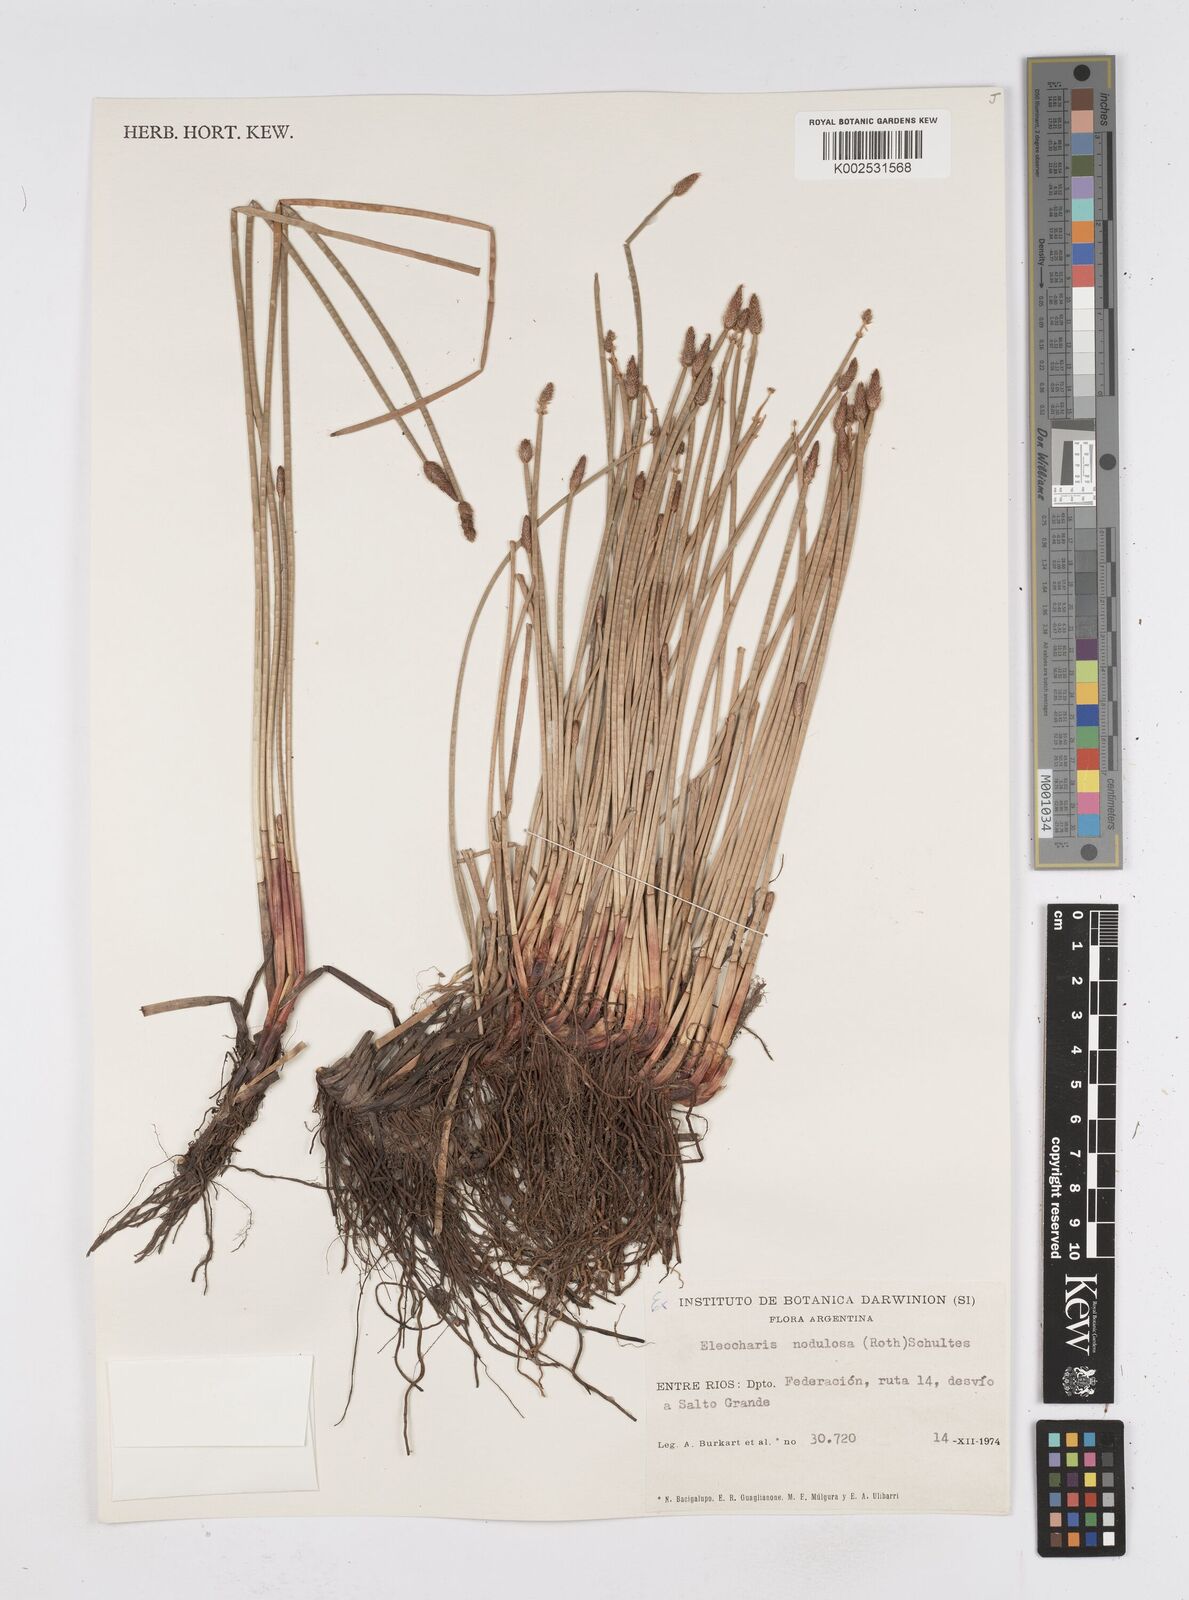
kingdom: Plantae
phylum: Tracheophyta
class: Liliopsida
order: Poales
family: Cyperaceae
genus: Eleocharis
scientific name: Eleocharis montana
